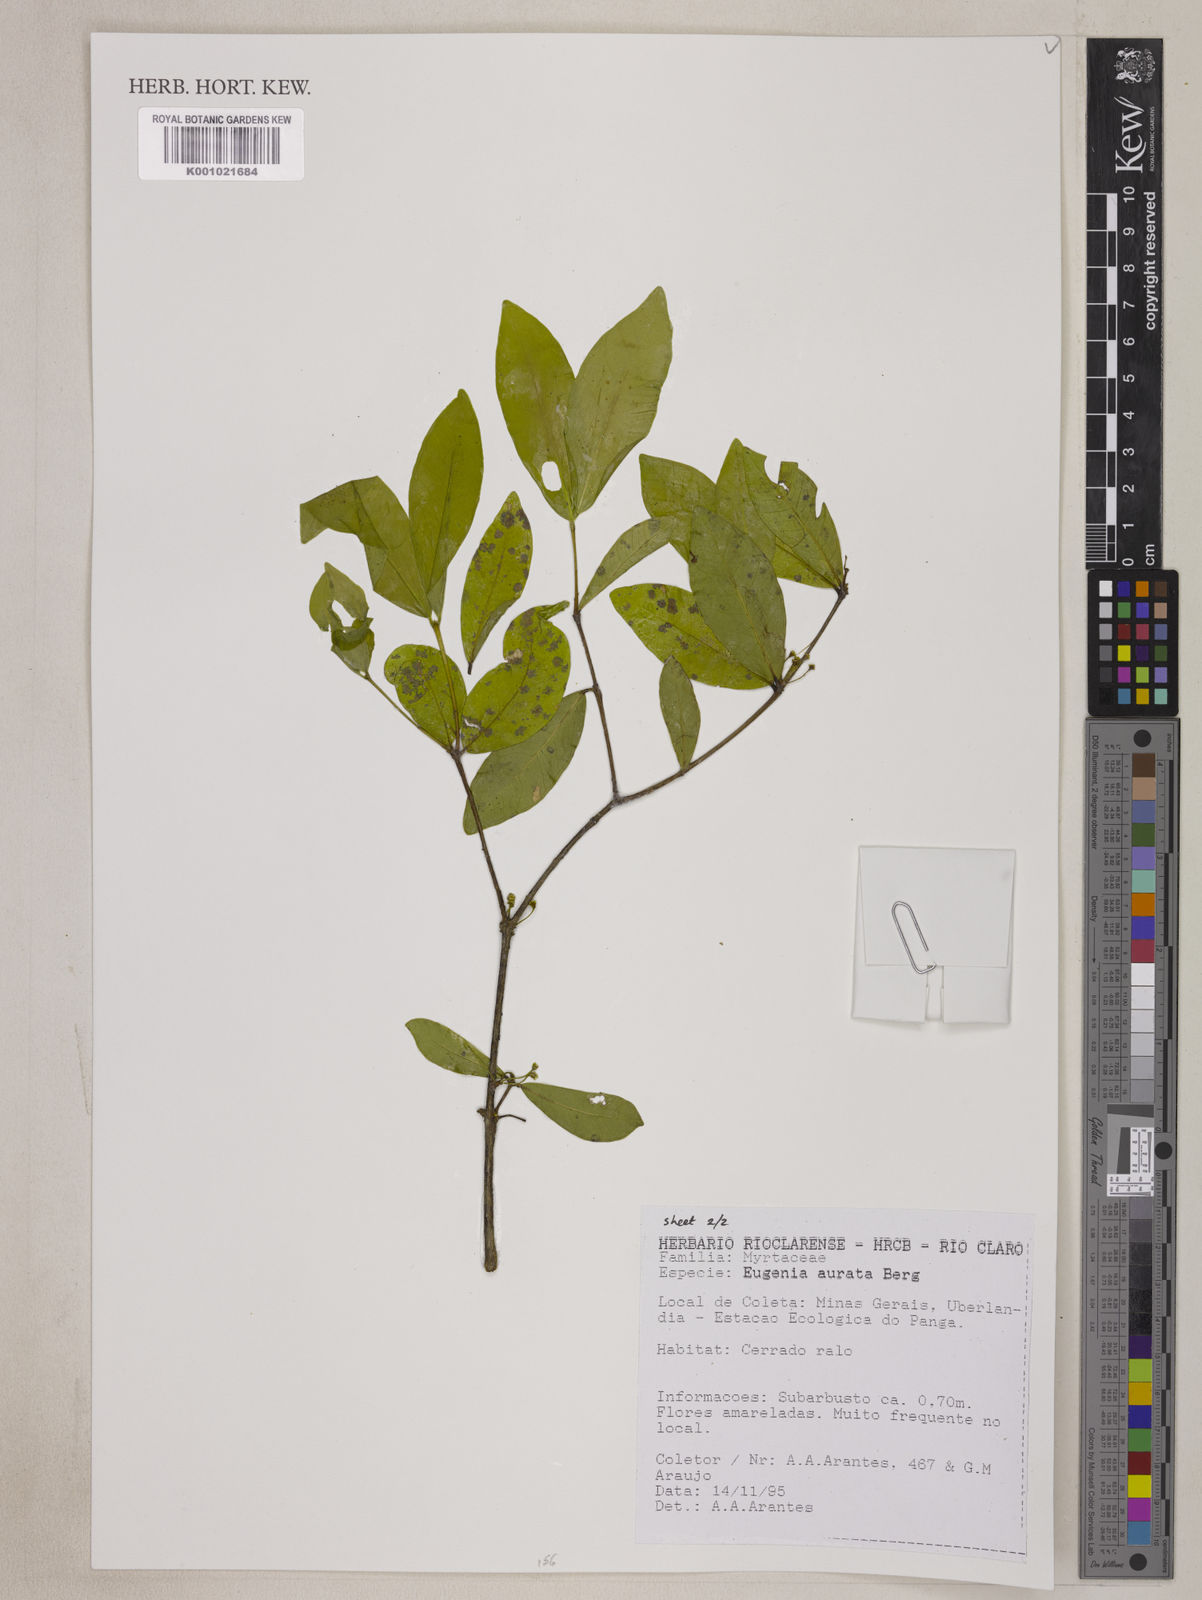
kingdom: Plantae
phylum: Tracheophyta
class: Magnoliopsida
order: Myrtales
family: Myrtaceae
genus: Eugenia
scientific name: Eugenia aurata
